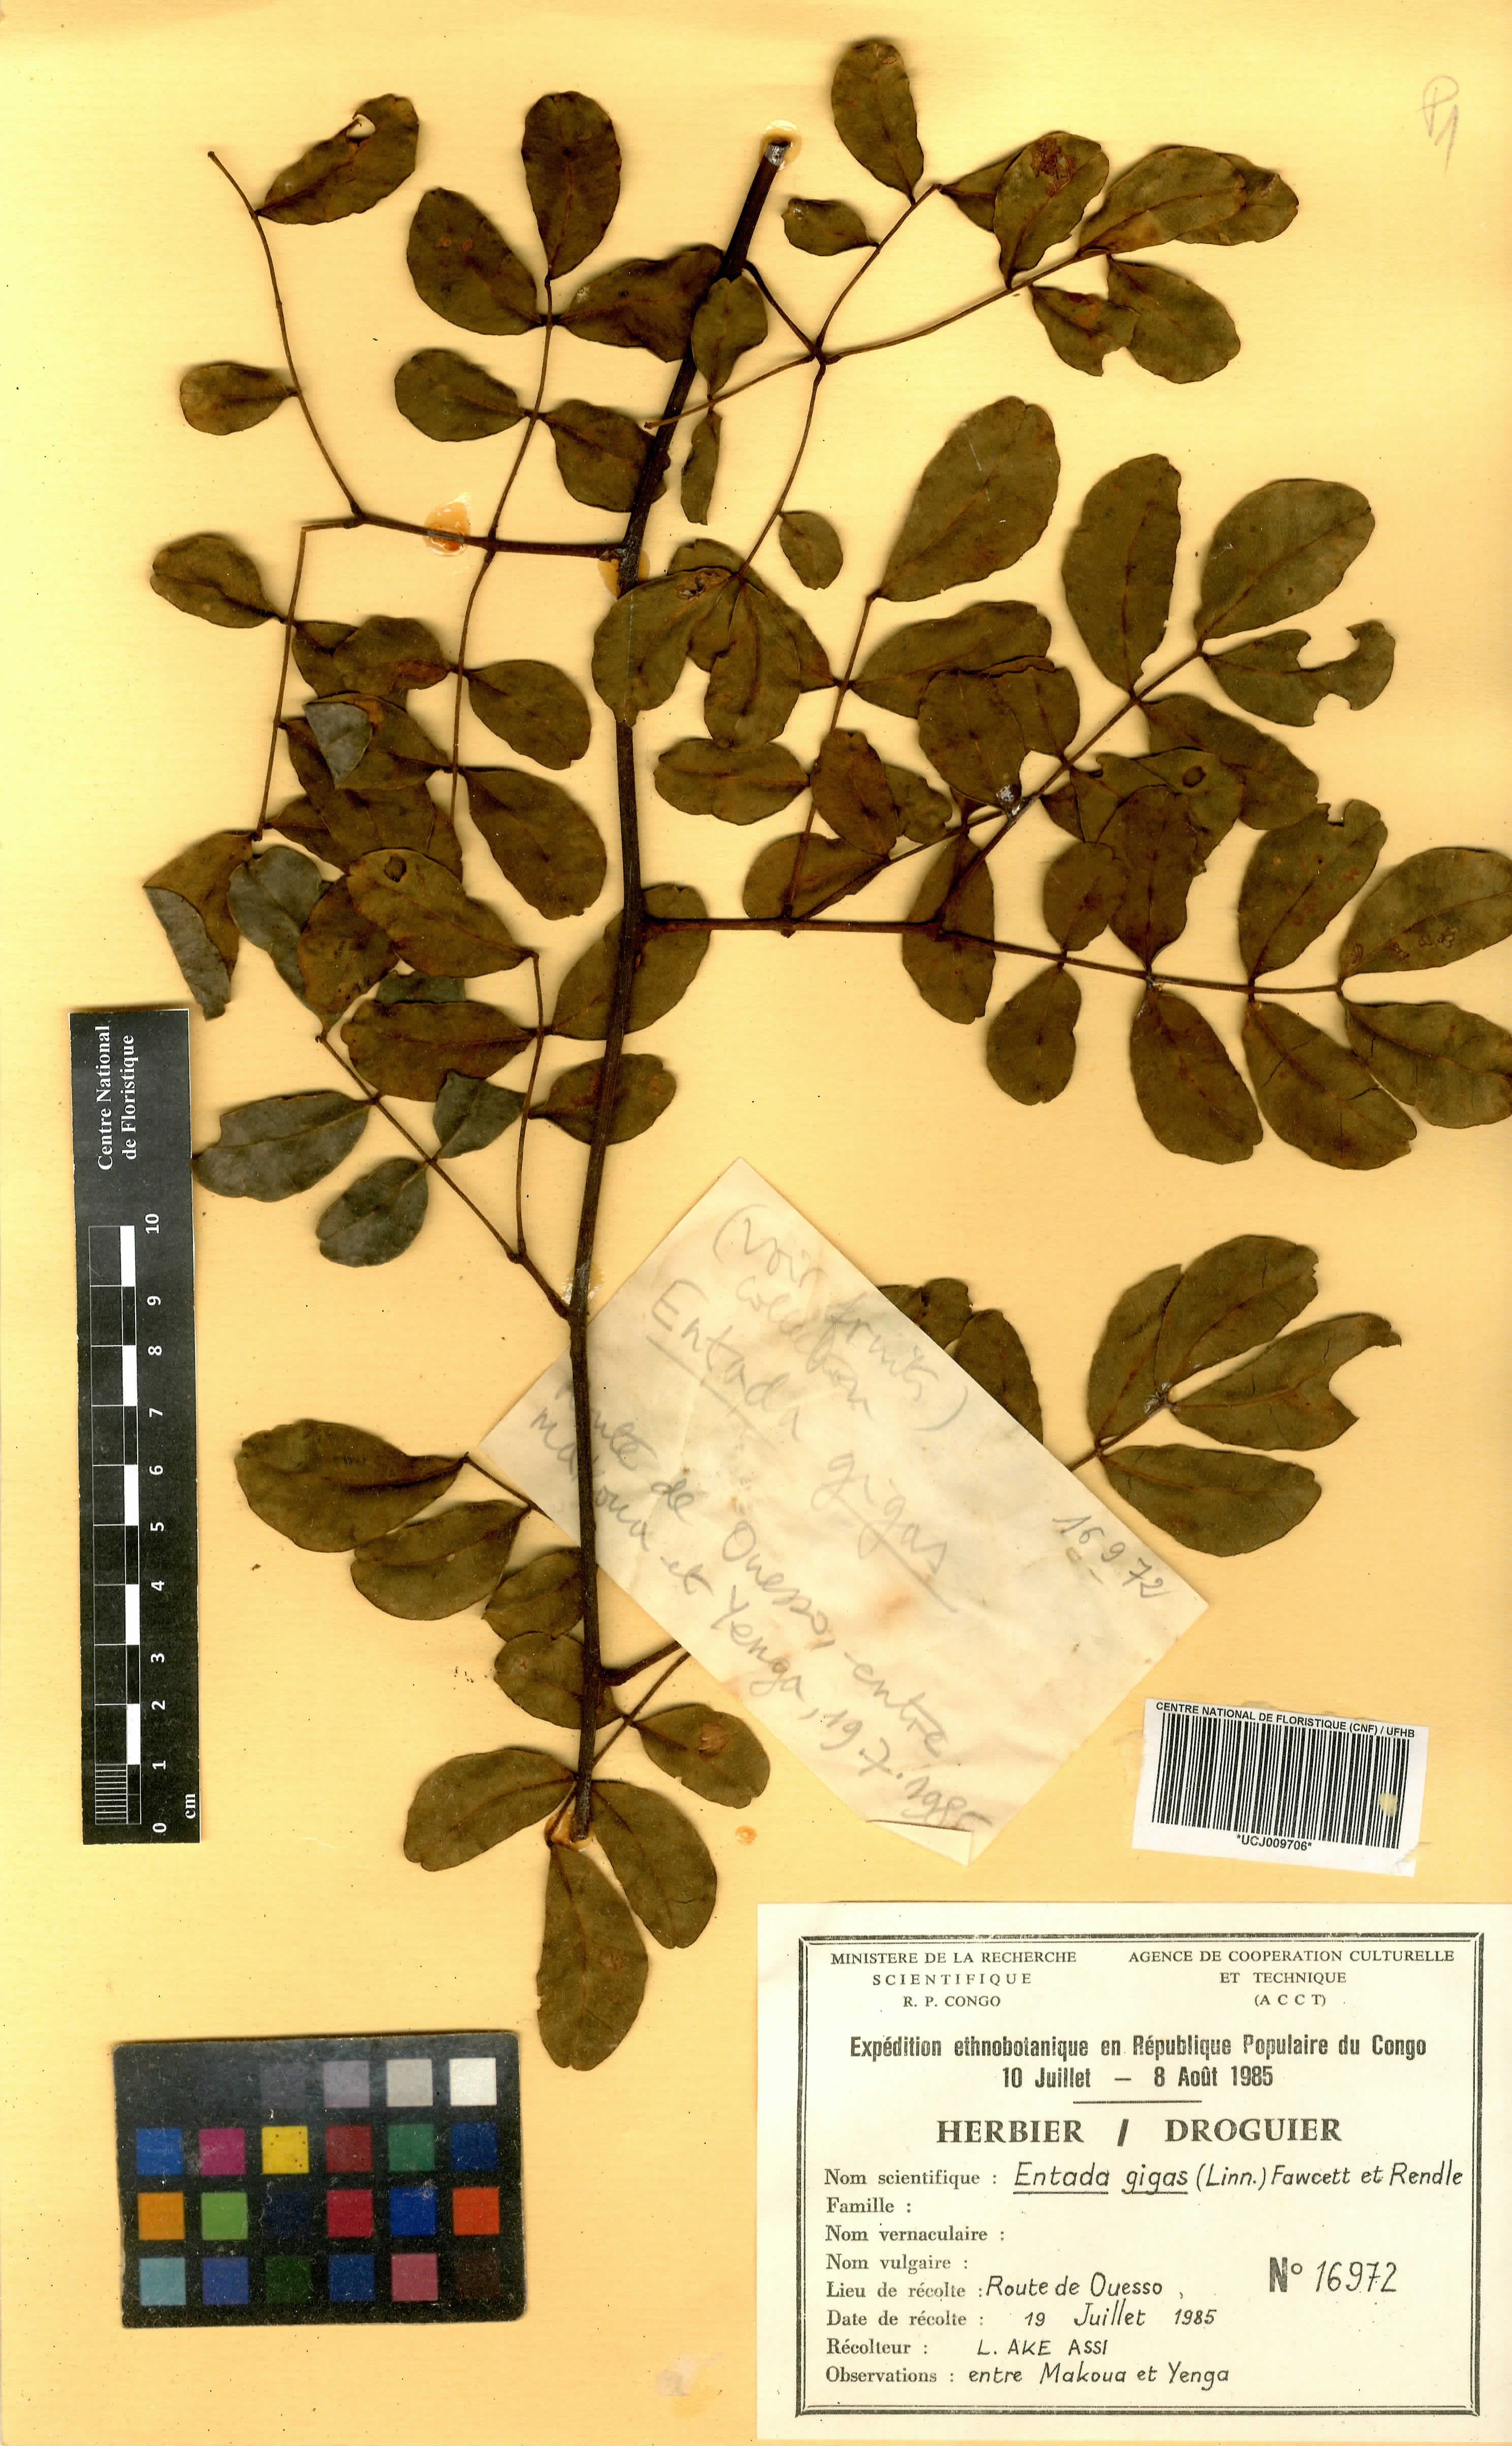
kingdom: Plantae
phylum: Tracheophyta
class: Magnoliopsida
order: Fabales
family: Fabaceae
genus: Entada
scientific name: Entada gigas
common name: Nicker-bean
